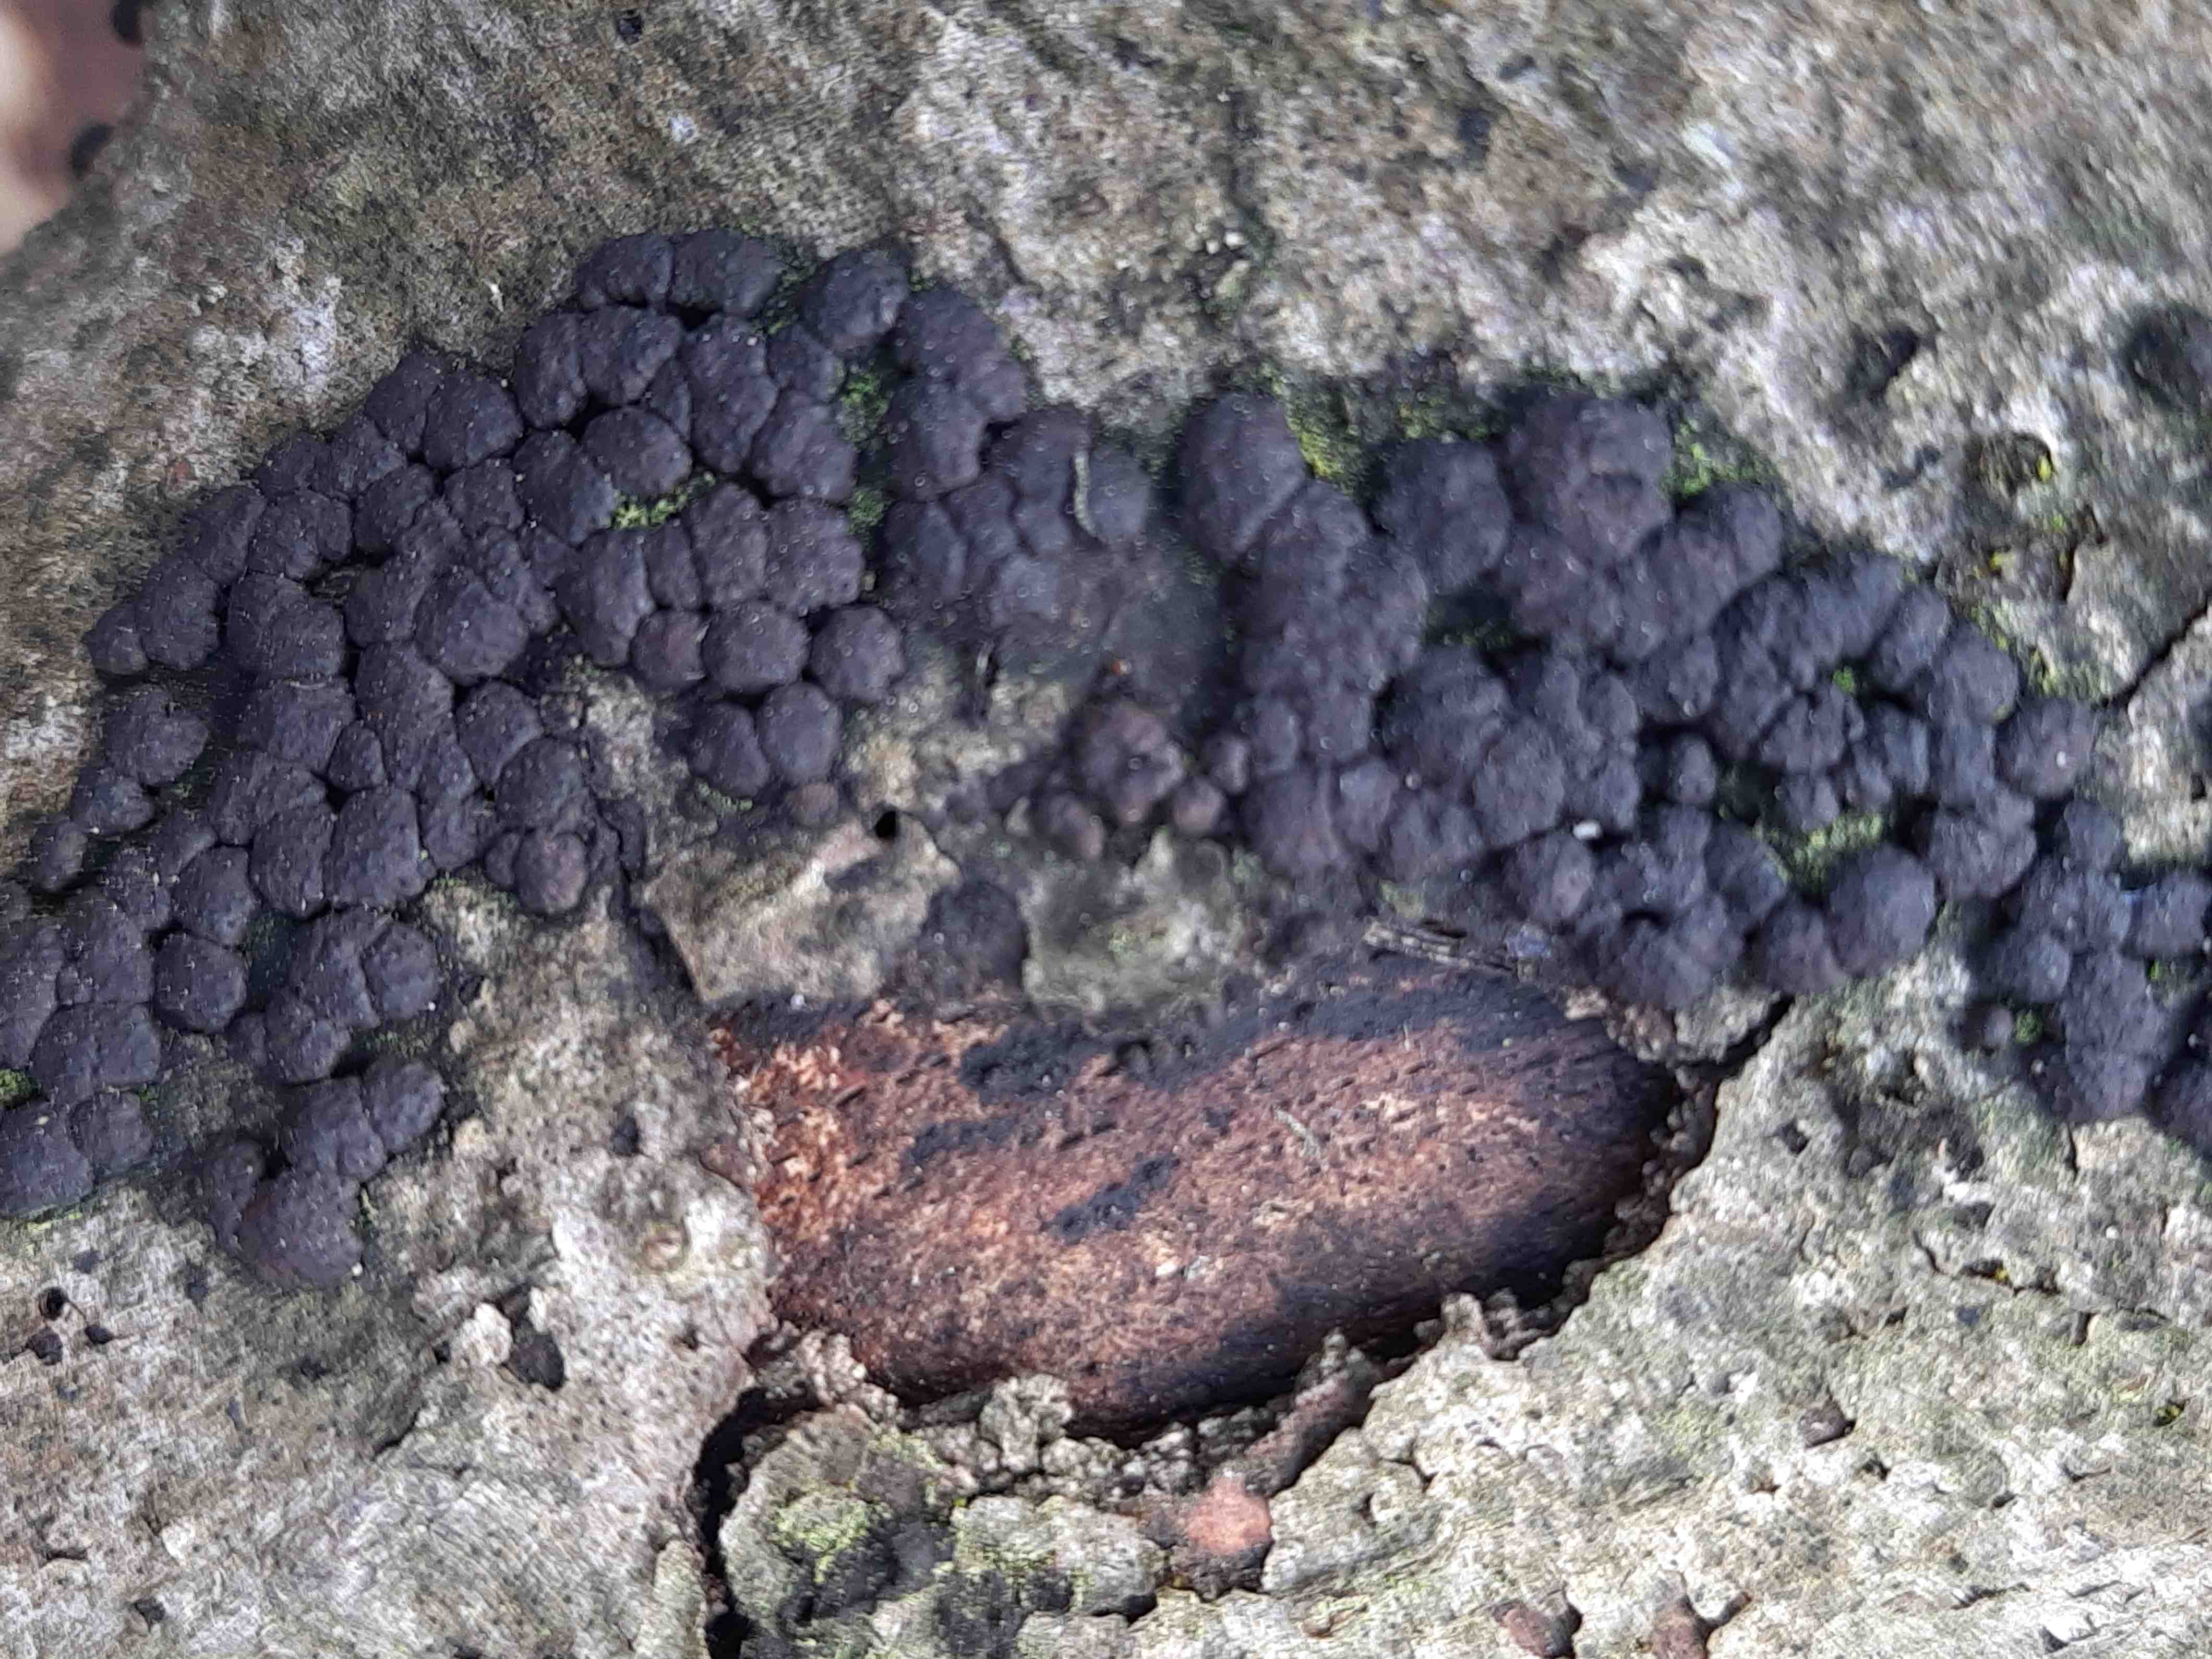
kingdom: Fungi
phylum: Ascomycota
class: Sordariomycetes
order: Xylariales
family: Hypoxylaceae
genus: Jackrogersella
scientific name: Jackrogersella cohaerens
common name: sammenflydende kulbær
